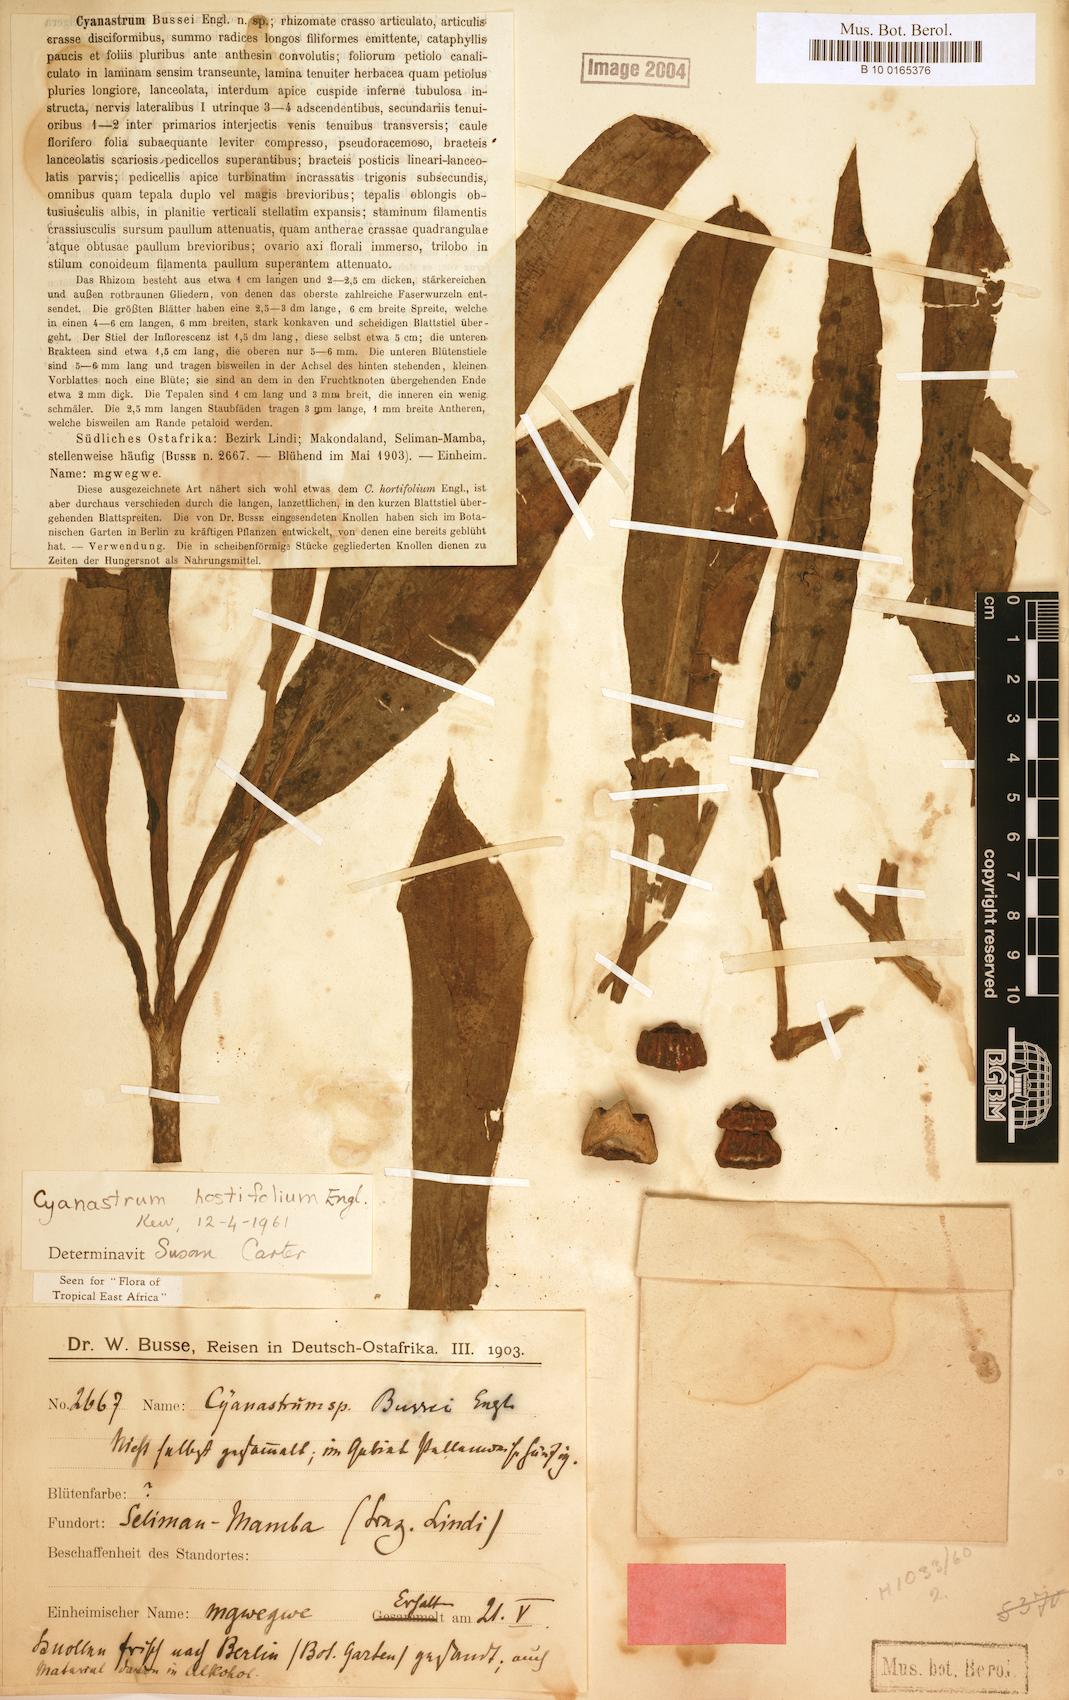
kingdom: Plantae
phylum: Tracheophyta
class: Liliopsida
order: Asparagales
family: Tecophilaeaceae
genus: Kabuyea
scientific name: Kabuyea hostifolia
